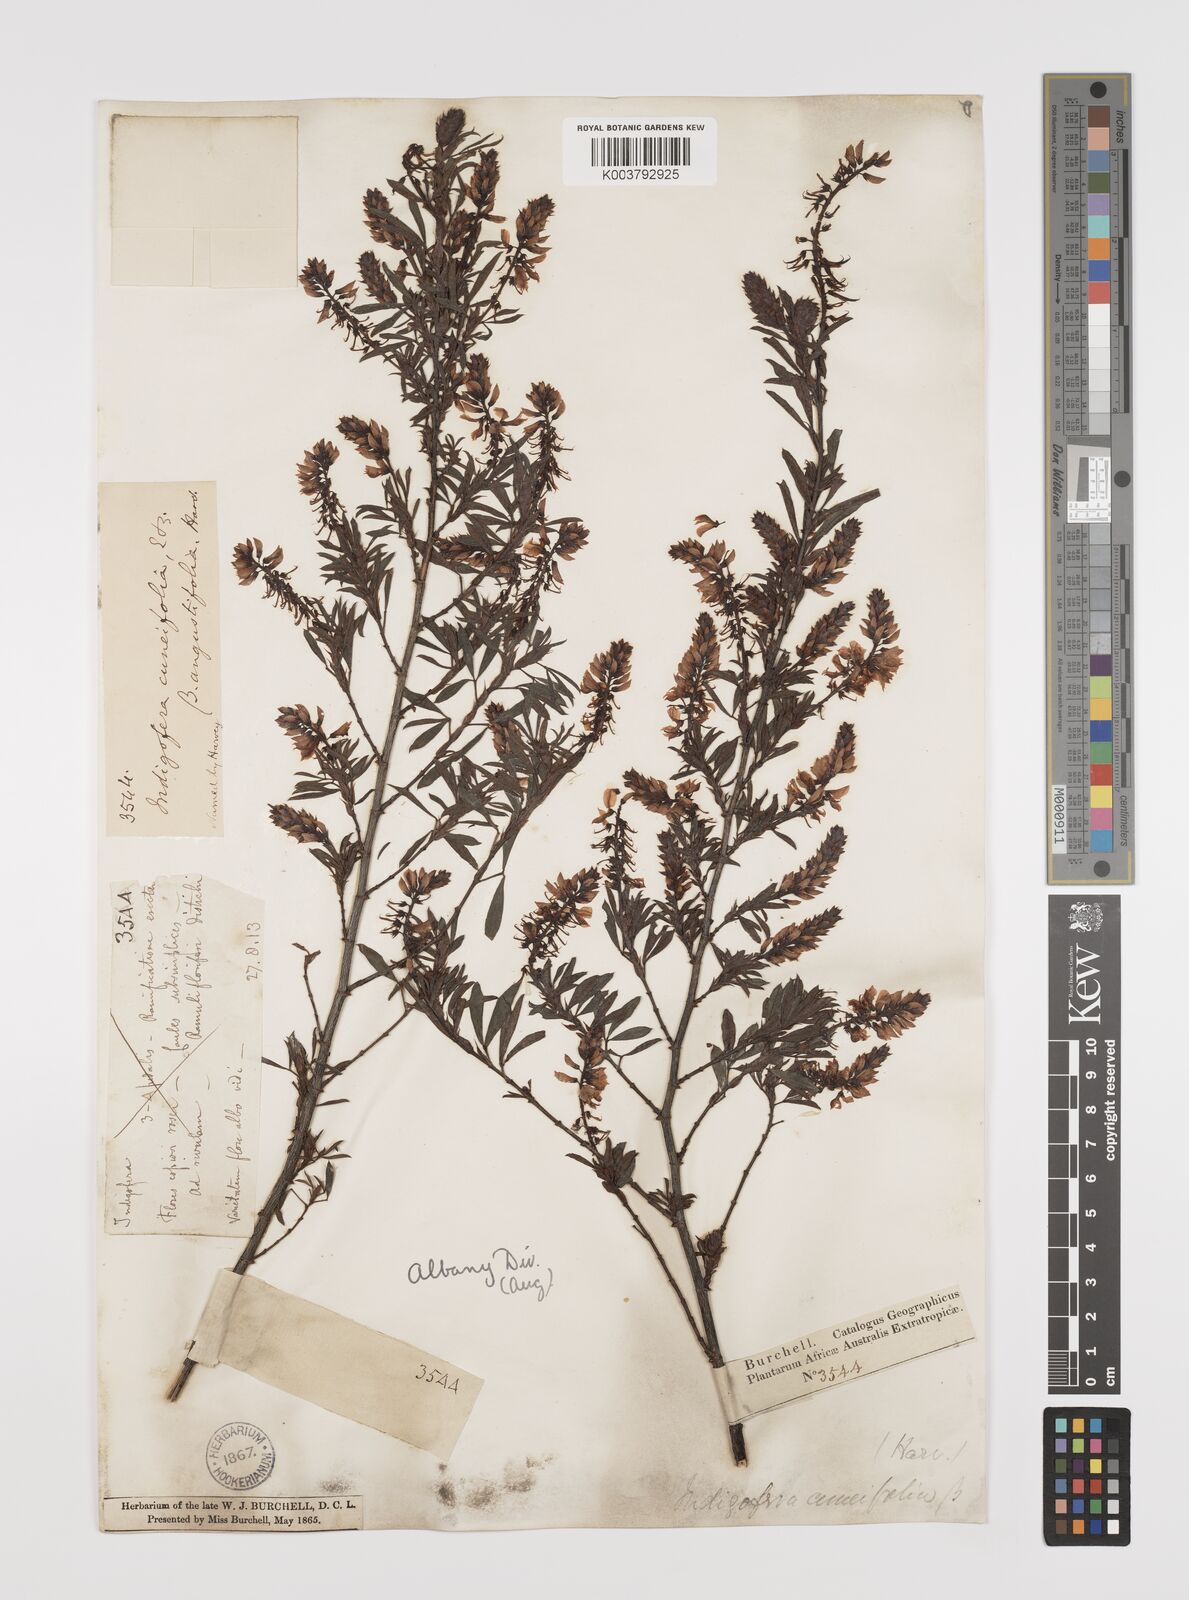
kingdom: Plantae
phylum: Tracheophyta
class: Magnoliopsida
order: Fabales
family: Fabaceae
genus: Indigofera
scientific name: Indigofera cuneifolia
